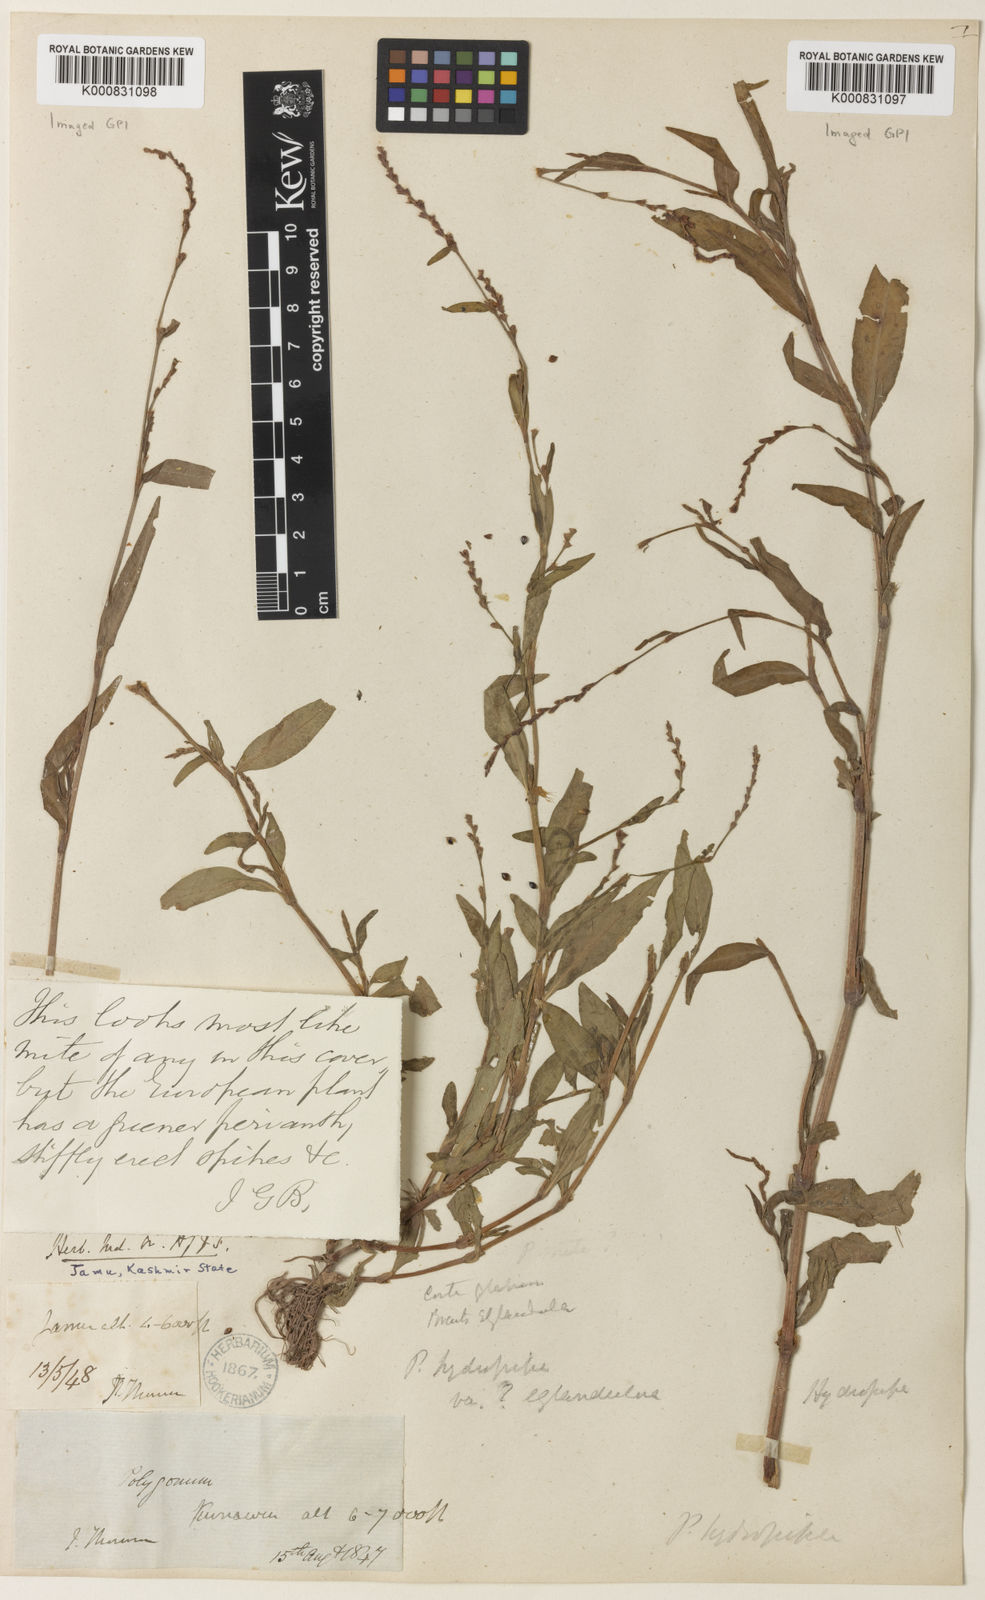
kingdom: Plantae
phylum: Tracheophyta
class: Magnoliopsida
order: Caryophyllales
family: Polygonaceae
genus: Persicaria
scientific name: Persicaria hydropiper
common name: Water-pepper
